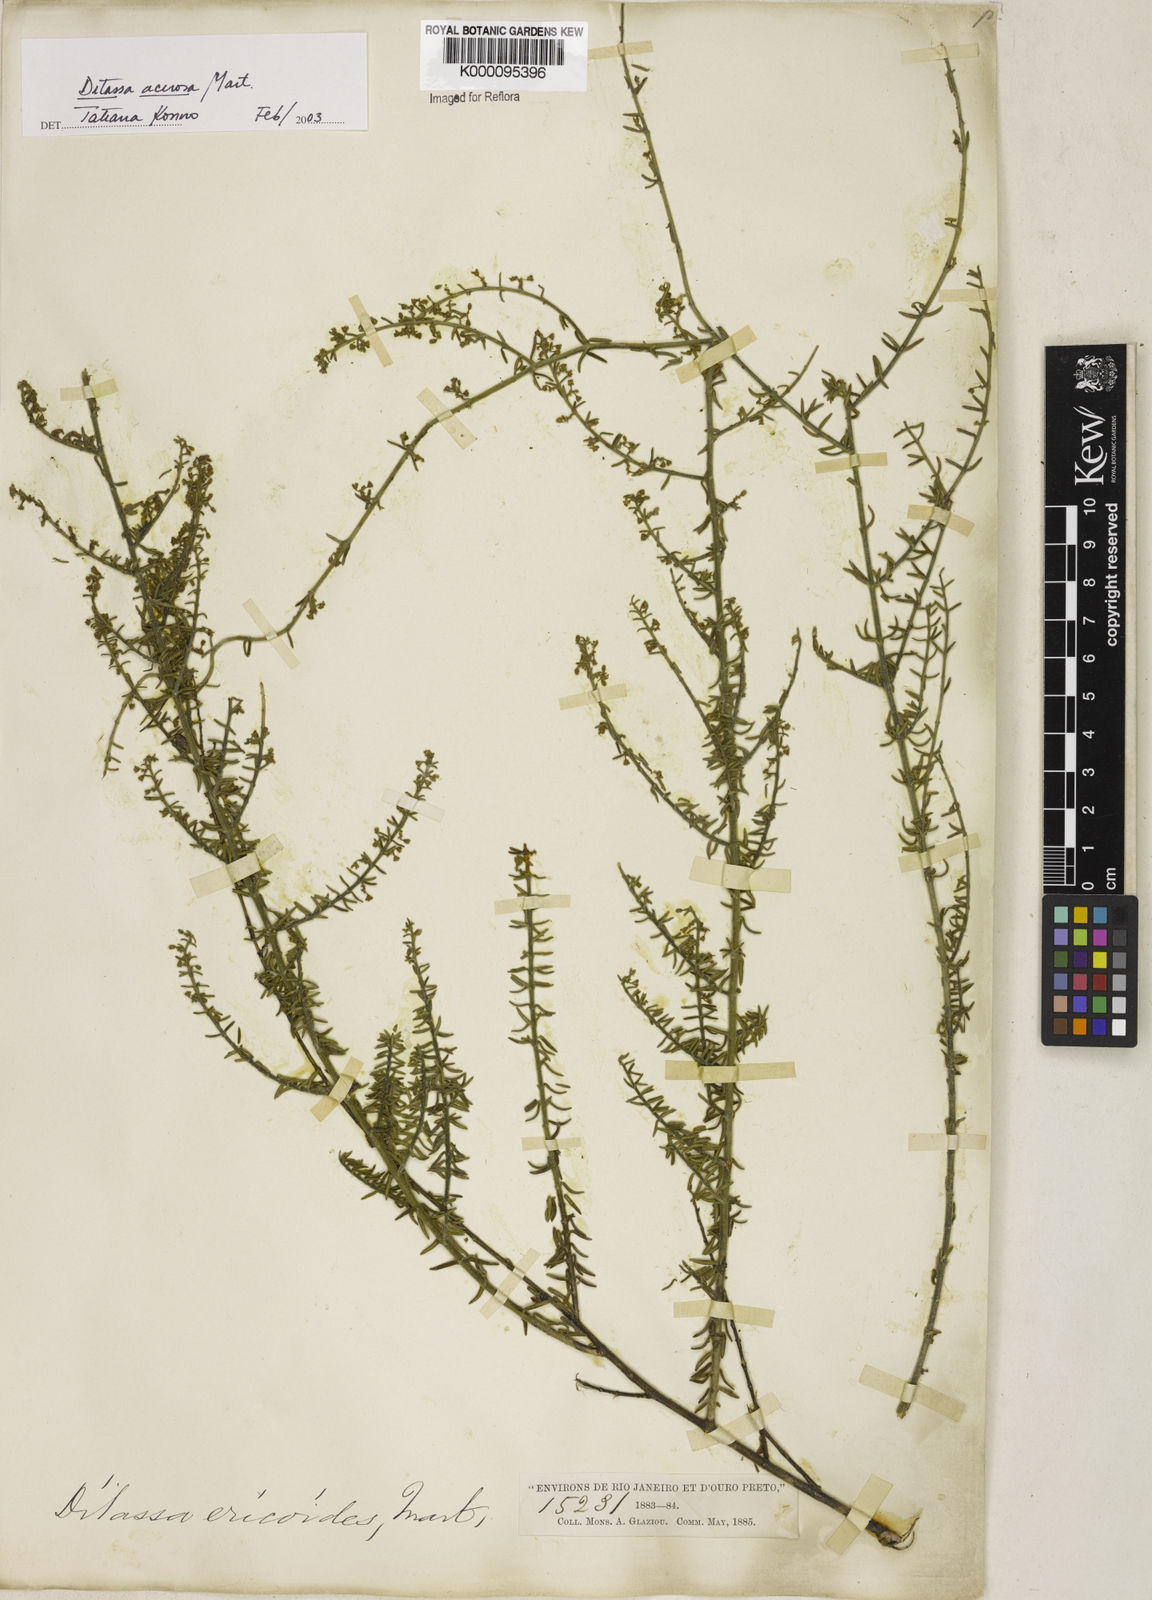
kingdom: Plantae
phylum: Tracheophyta
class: Magnoliopsida
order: Gentianales
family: Apocynaceae
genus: Minaria
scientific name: Minaria acerosa
